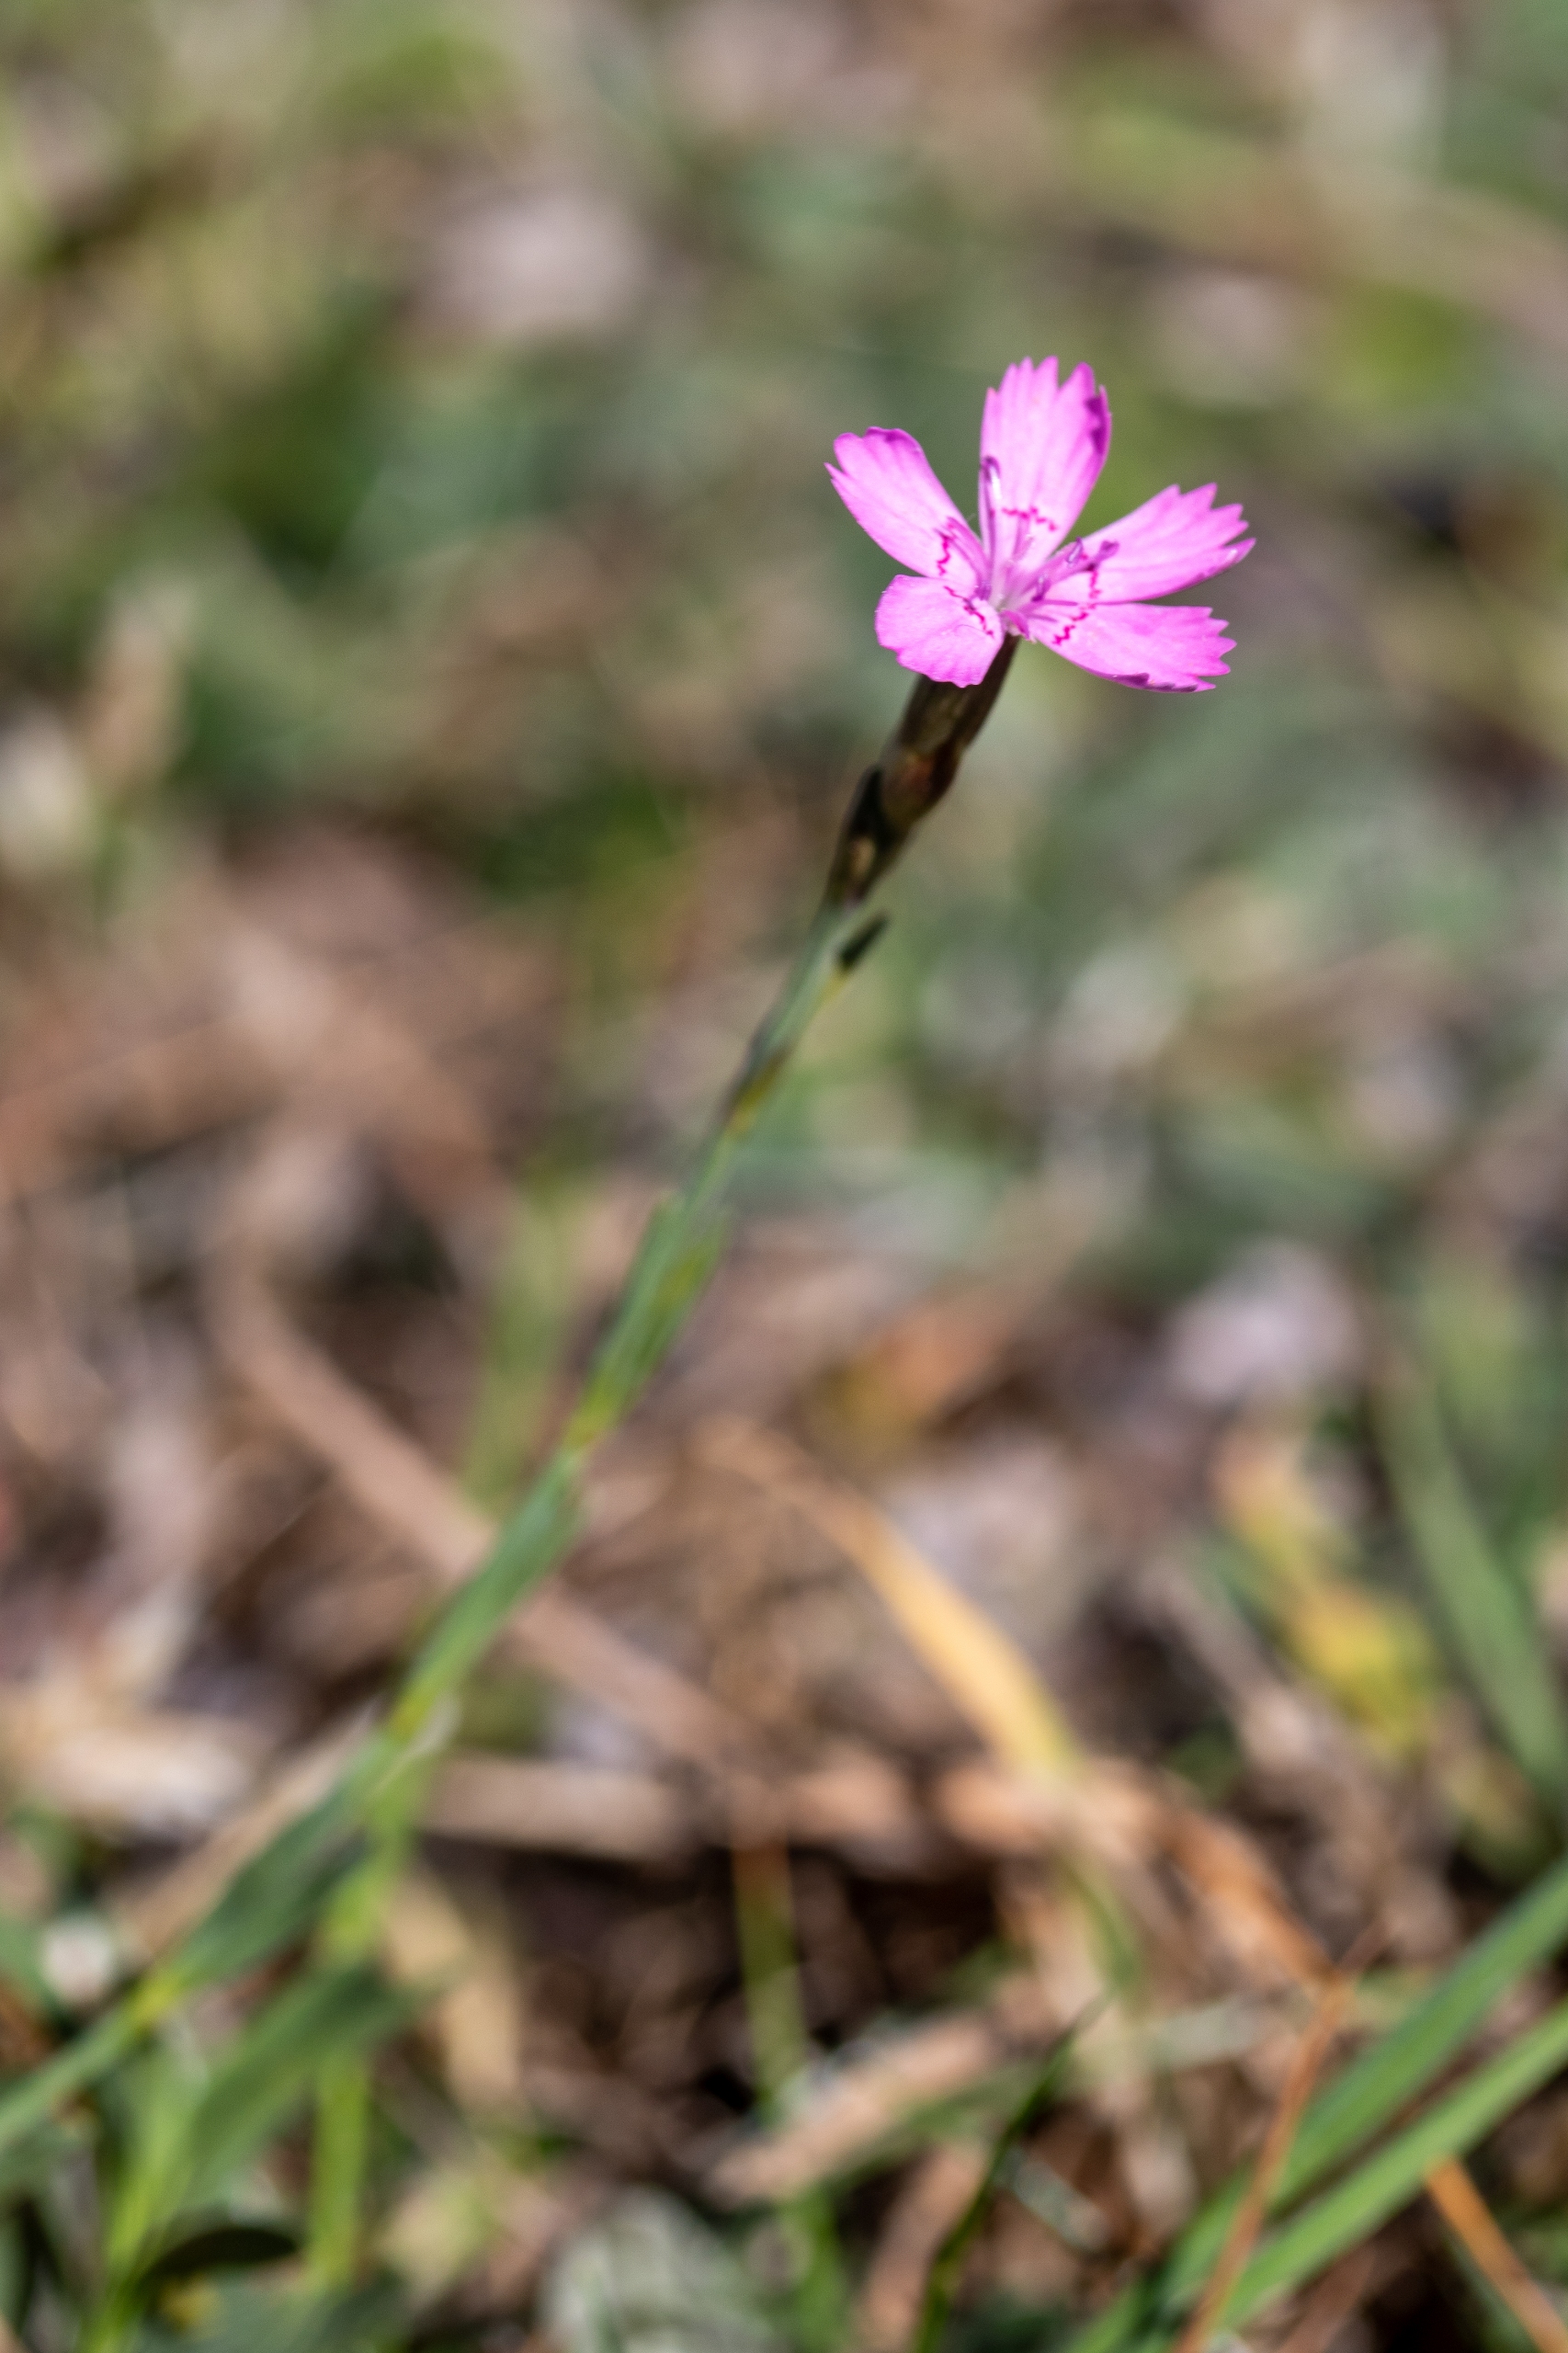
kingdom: Plantae
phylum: Tracheophyta
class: Magnoliopsida
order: Caryophyllales
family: Caryophyllaceae
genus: Dianthus
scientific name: Dianthus deltoides
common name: Bakke-nellike
